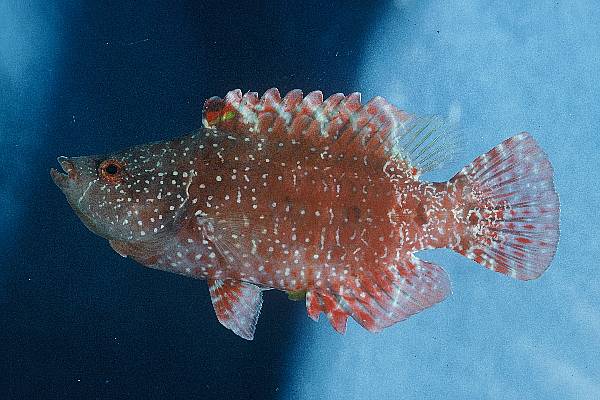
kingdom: Animalia
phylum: Chordata
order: Perciformes
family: Labridae
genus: Cheilinus
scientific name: Cheilinus oxycephalus
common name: Snooty wrasse
